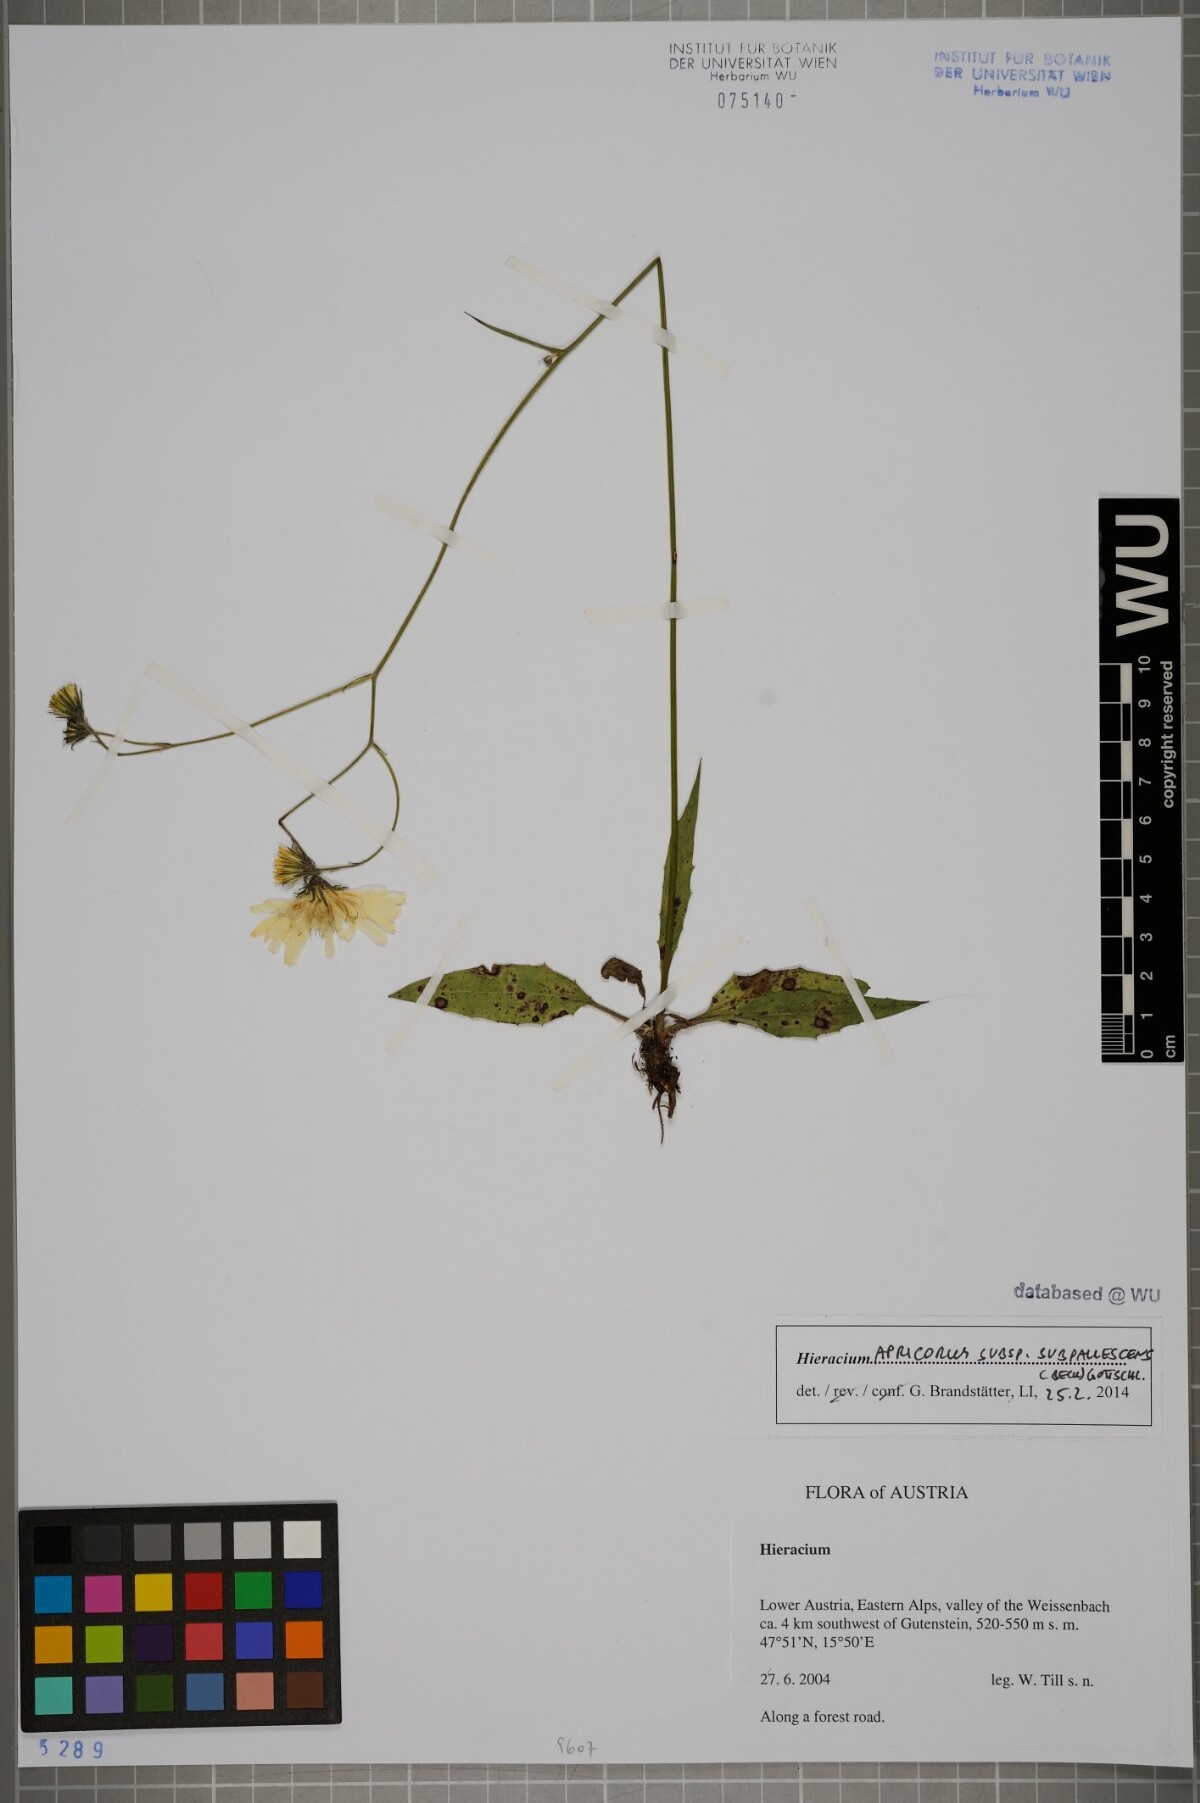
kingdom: Plantae
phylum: Tracheophyta
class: Magnoliopsida
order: Asterales
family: Asteraceae
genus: Hieracium
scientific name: Hieracium apricorum
